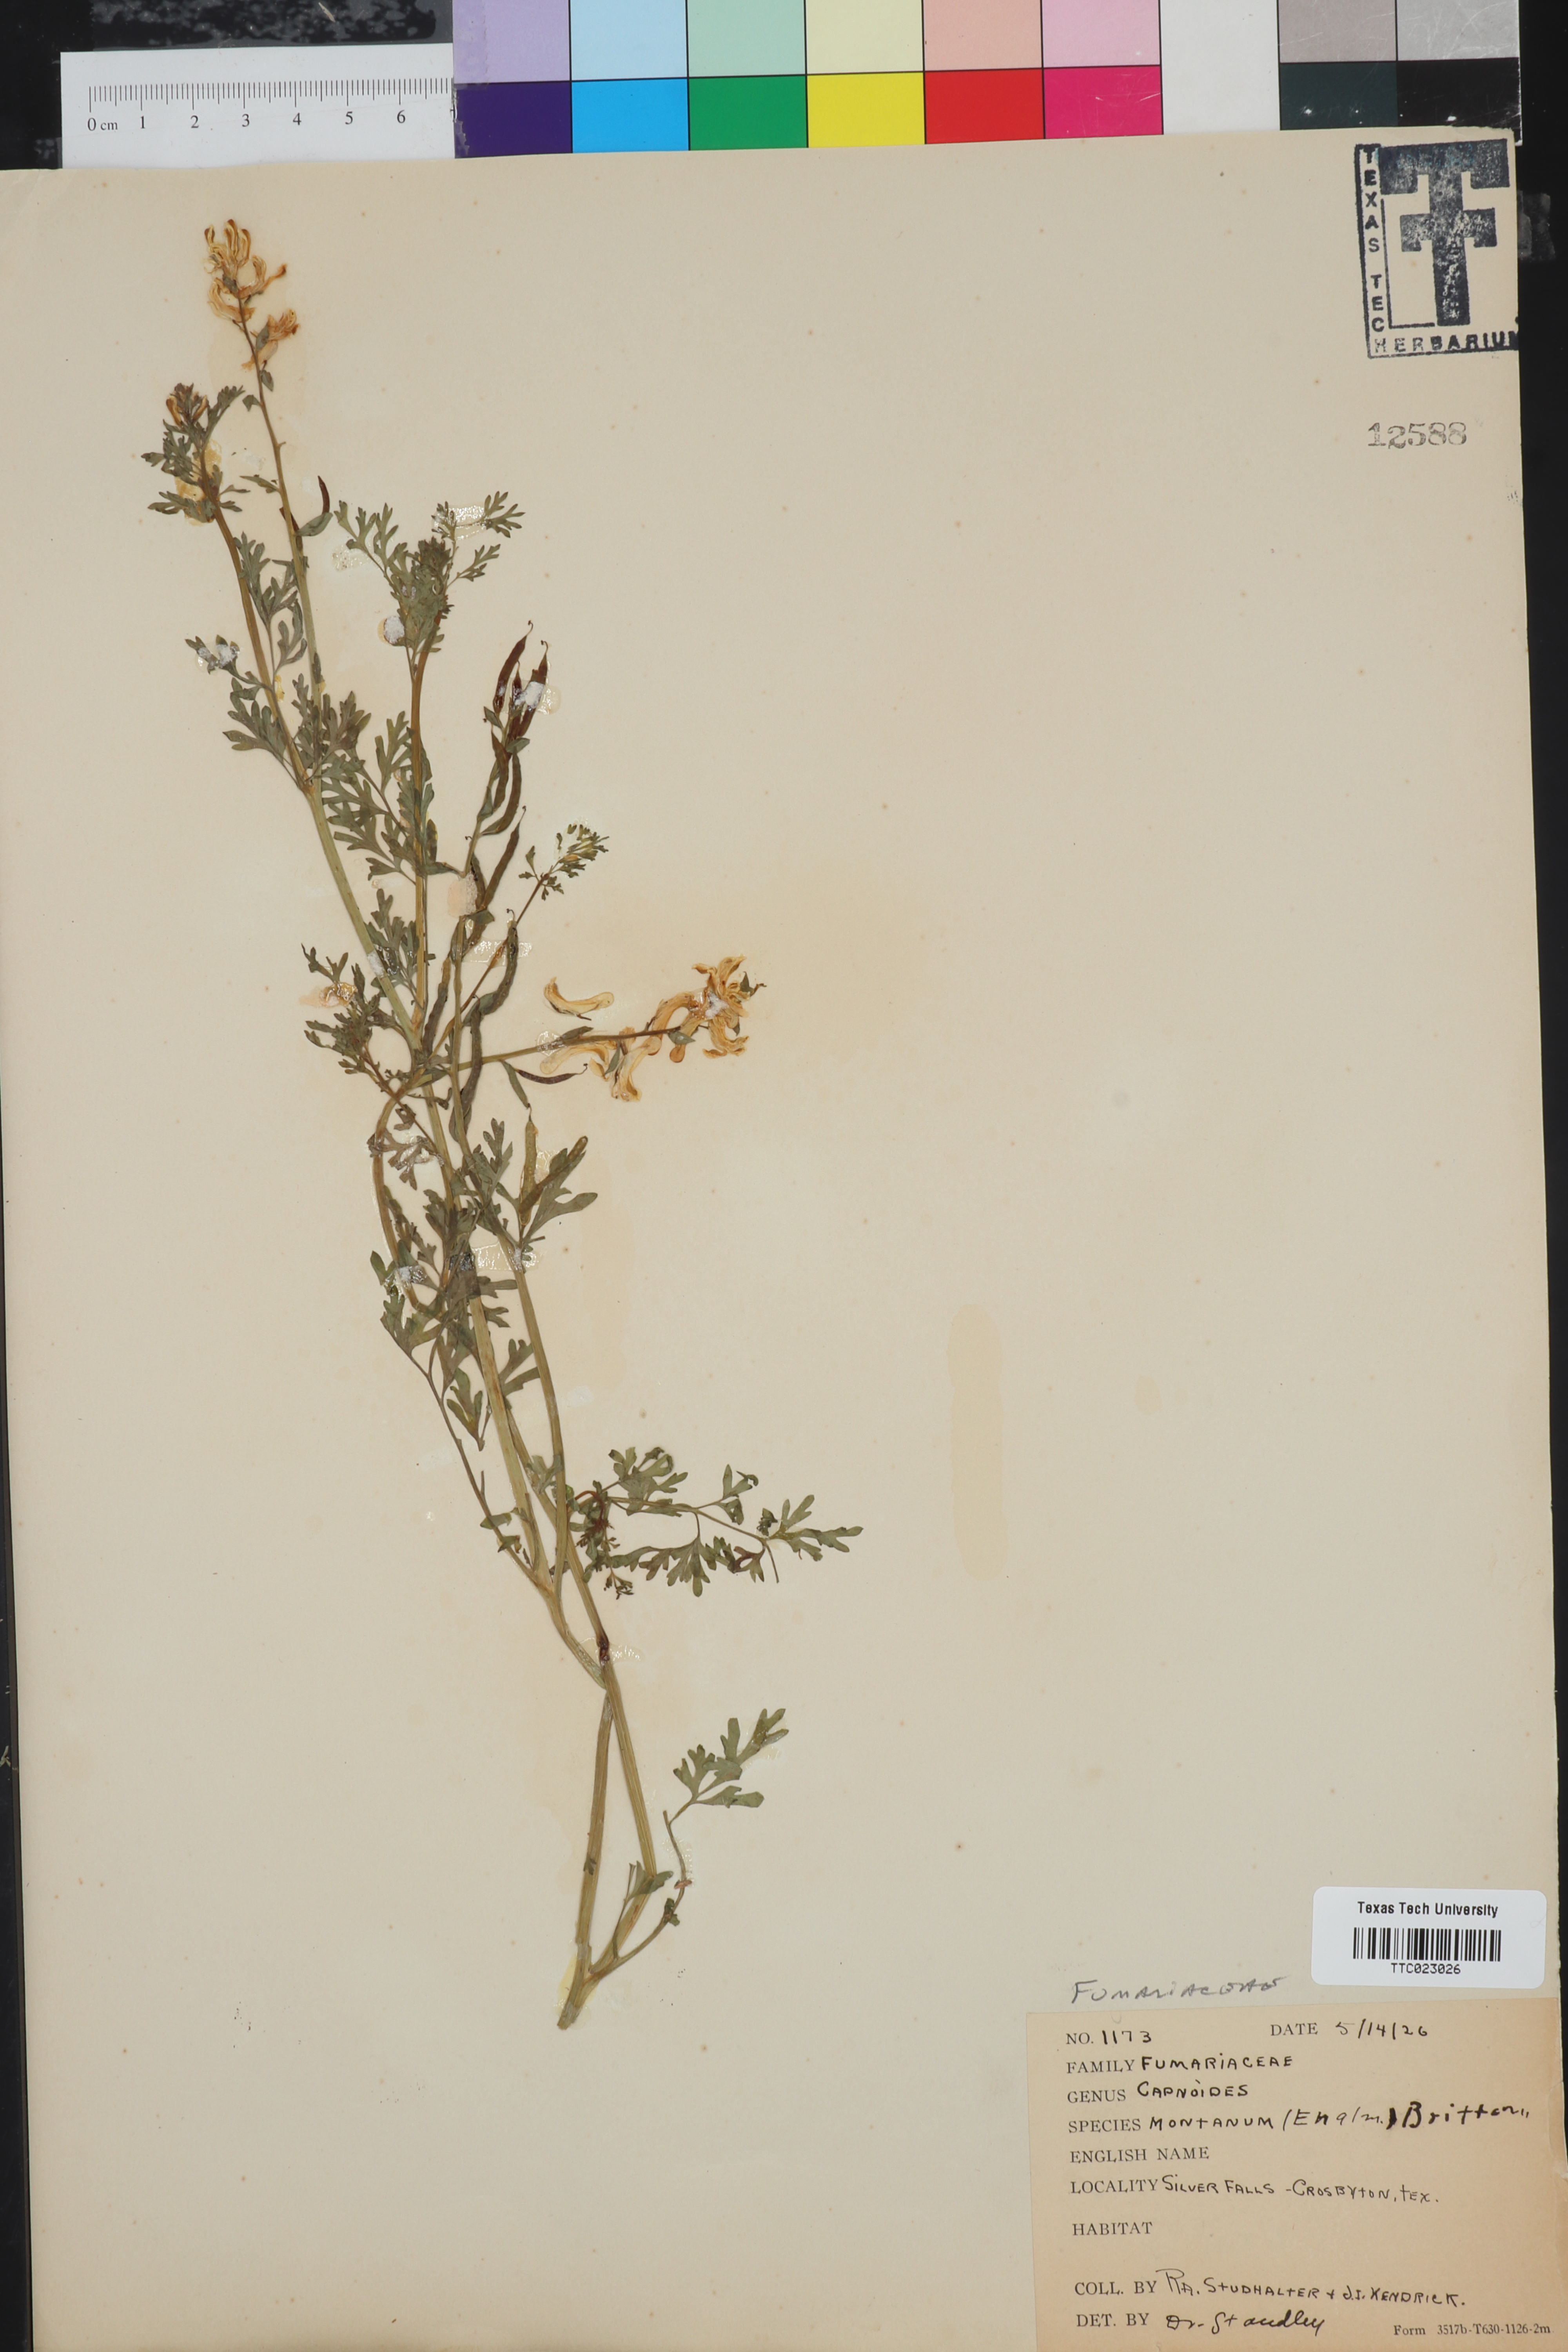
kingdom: Plantae
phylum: Tracheophyta
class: Magnoliopsida
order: Ranunculales
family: Papaveraceae
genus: Corydalis
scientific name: Corydalis curvisiliqua
